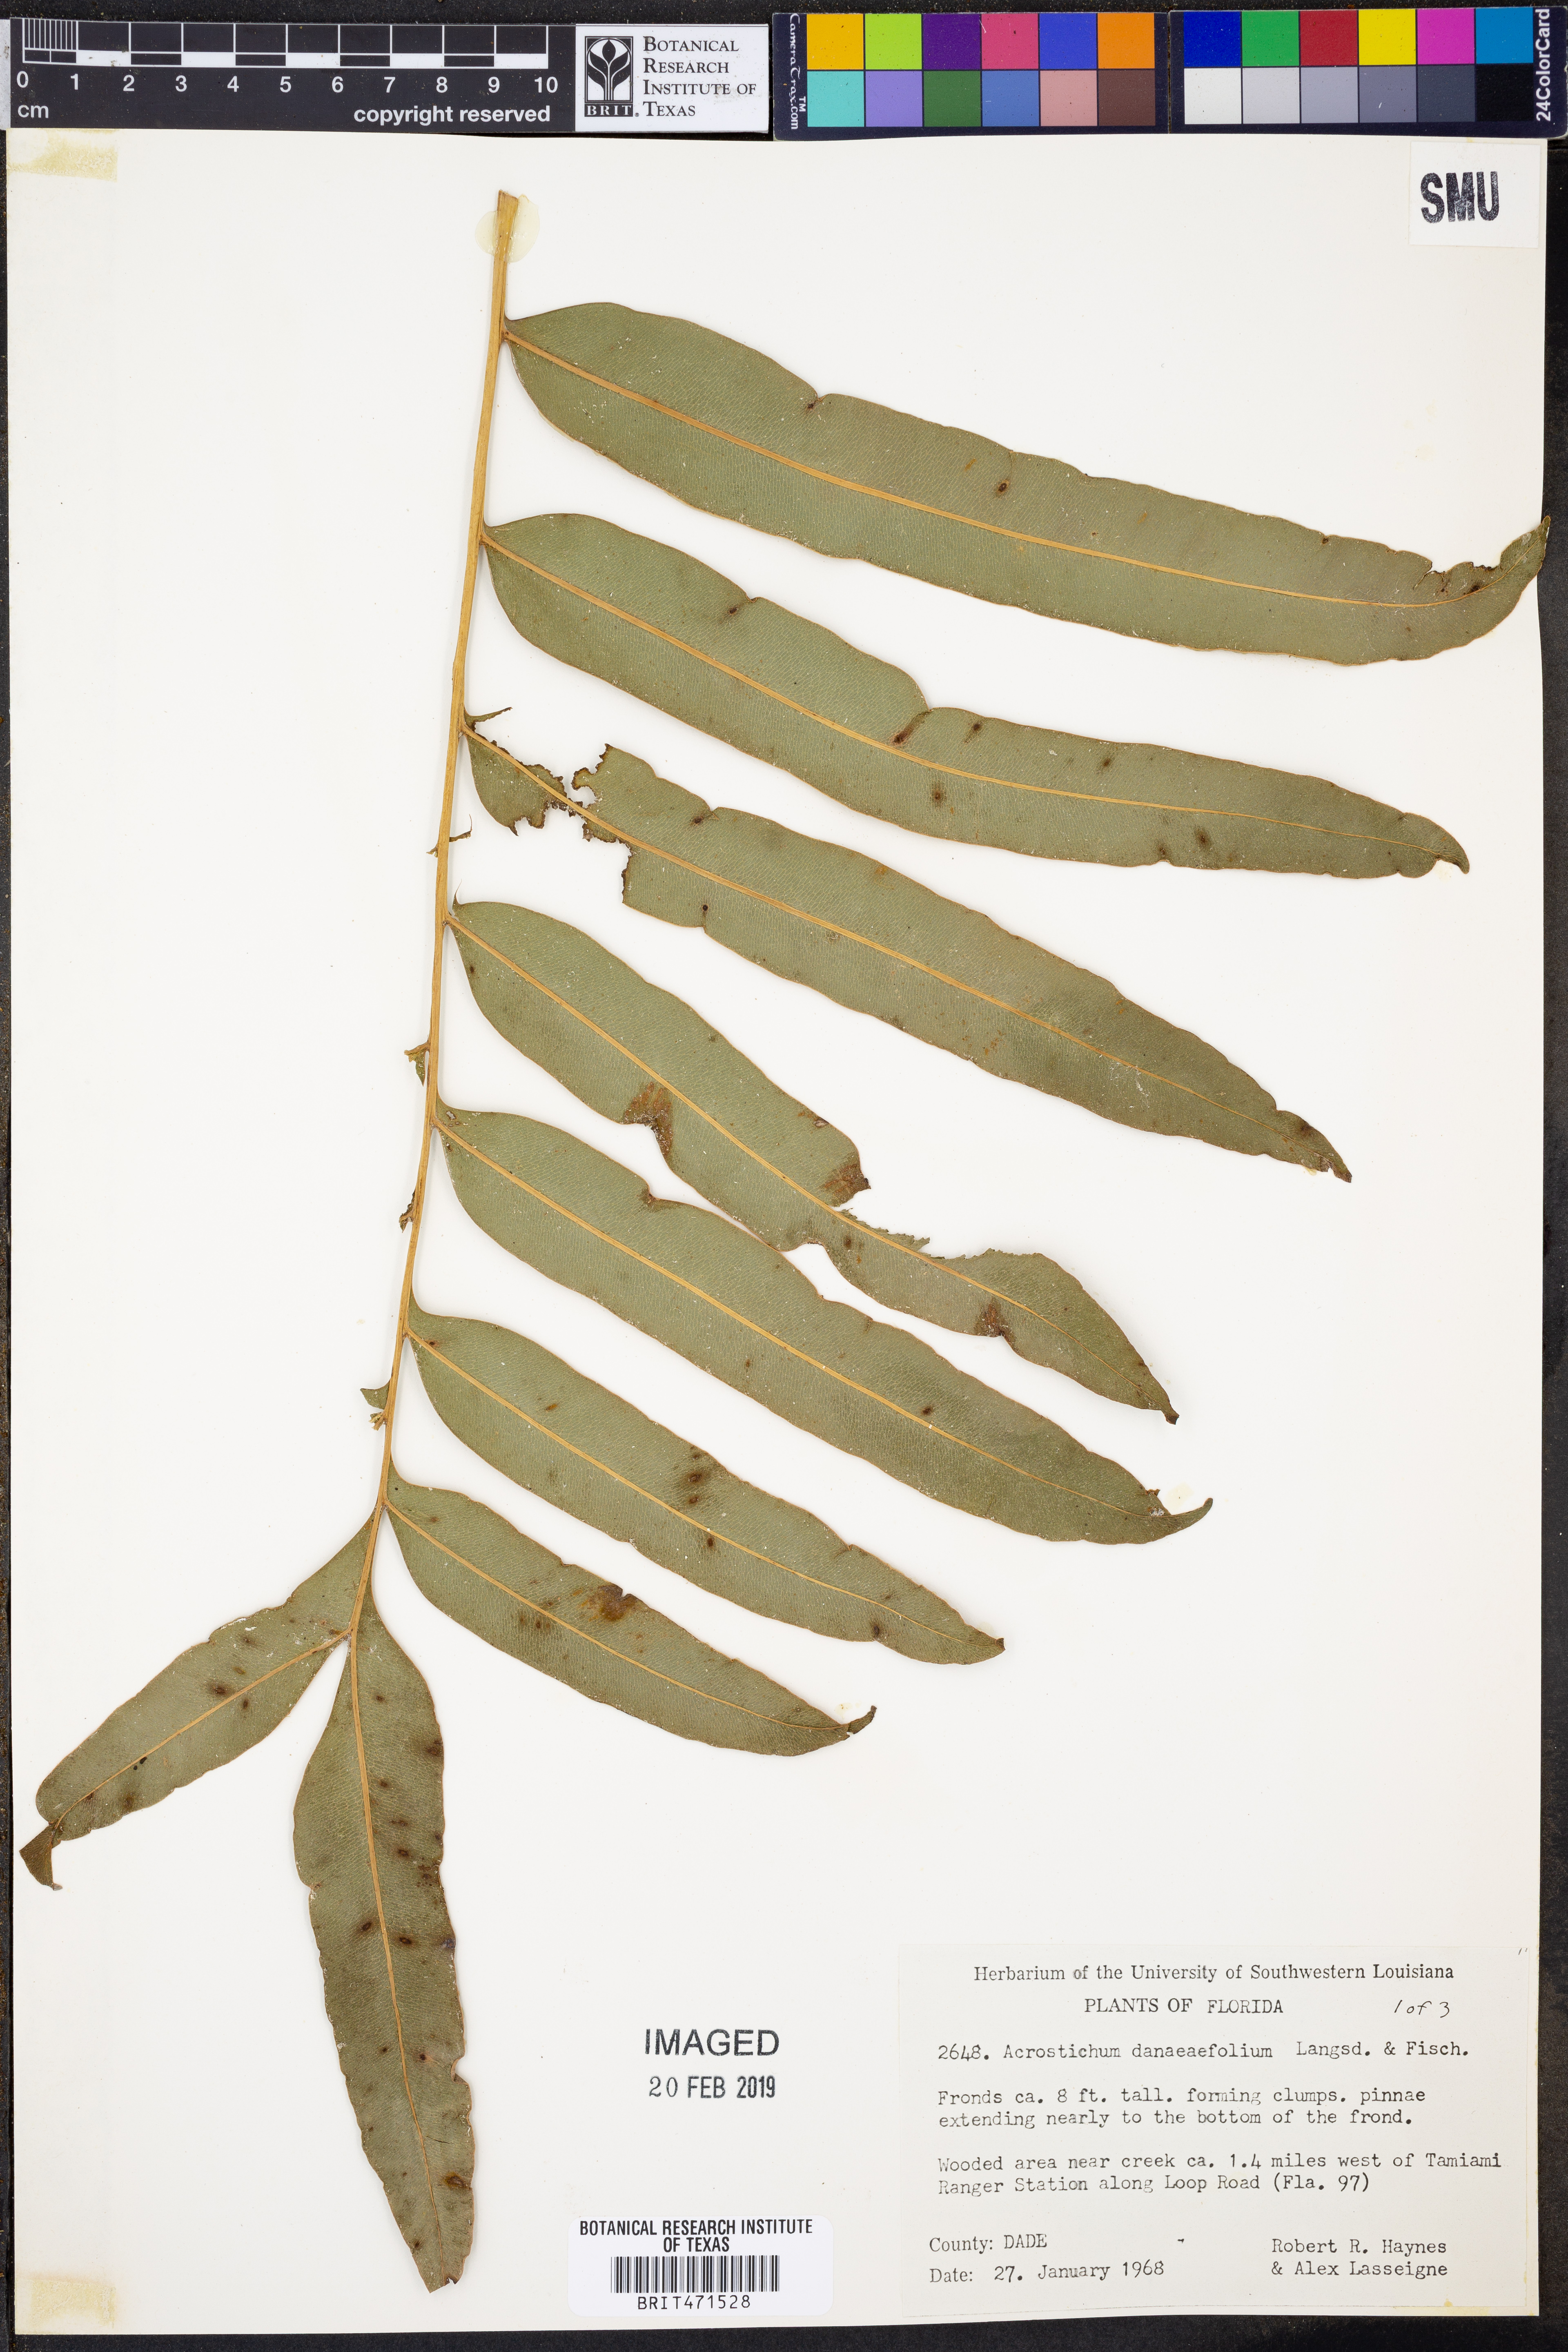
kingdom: Plantae
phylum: Tracheophyta
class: Polypodiopsida
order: Polypodiales
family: Pteridaceae
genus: Acrostichum
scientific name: Acrostichum danaeifolium
